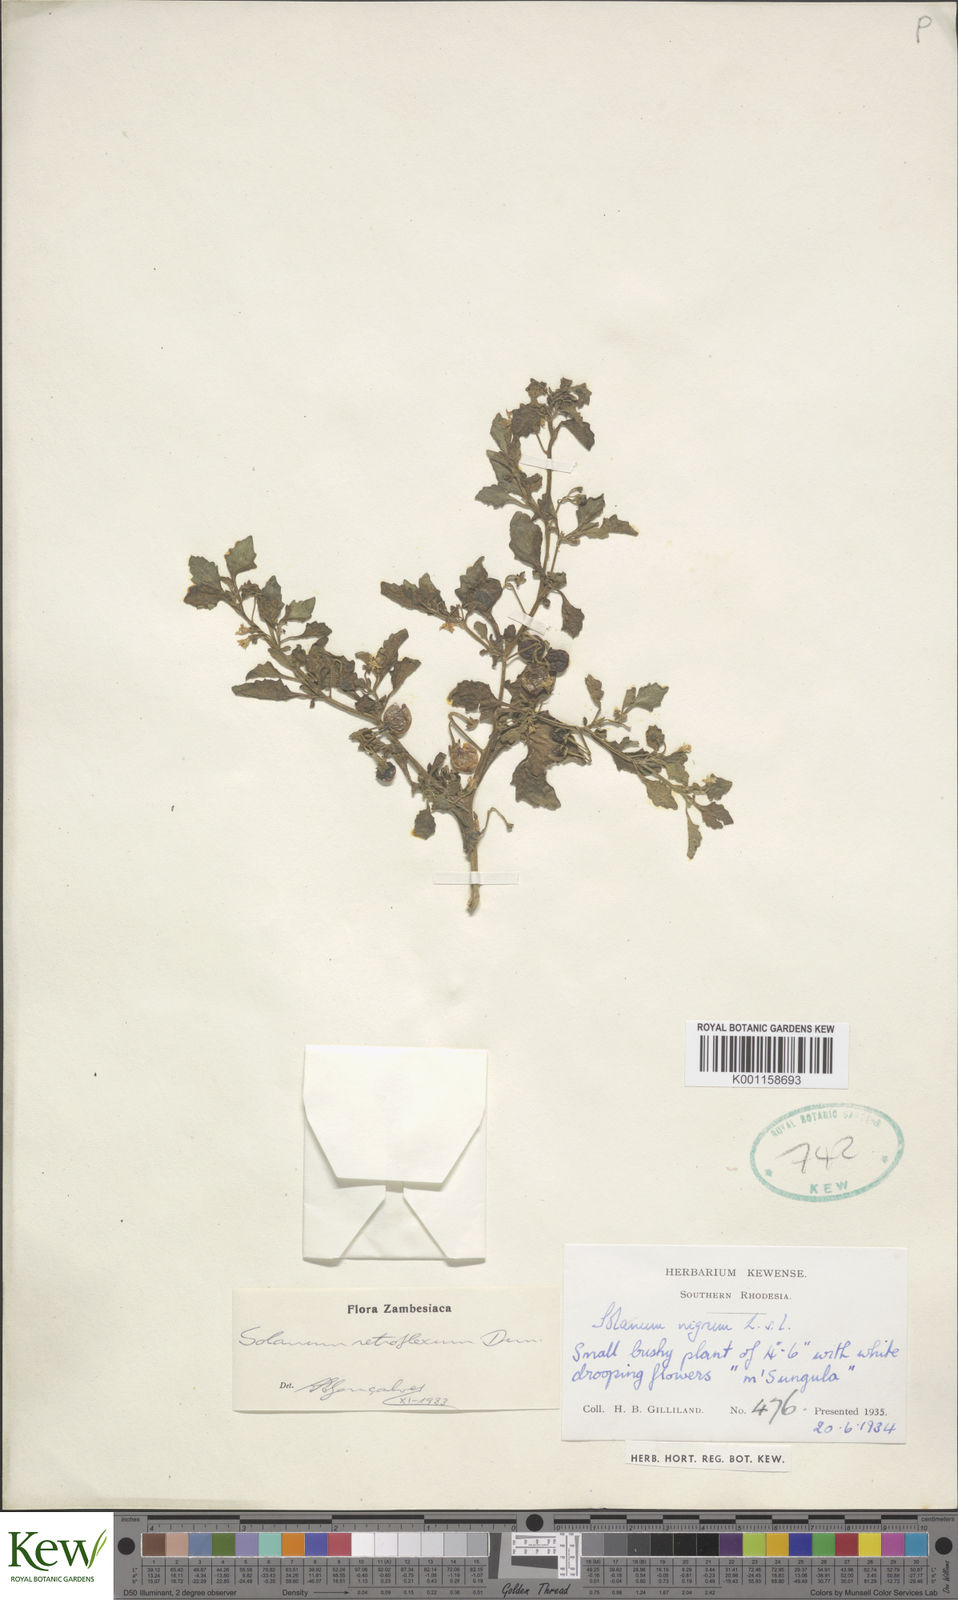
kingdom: Plantae
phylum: Tracheophyta
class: Magnoliopsida
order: Solanales
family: Solanaceae
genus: Solanum
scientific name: Solanum retroflexum
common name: Wonderberry
